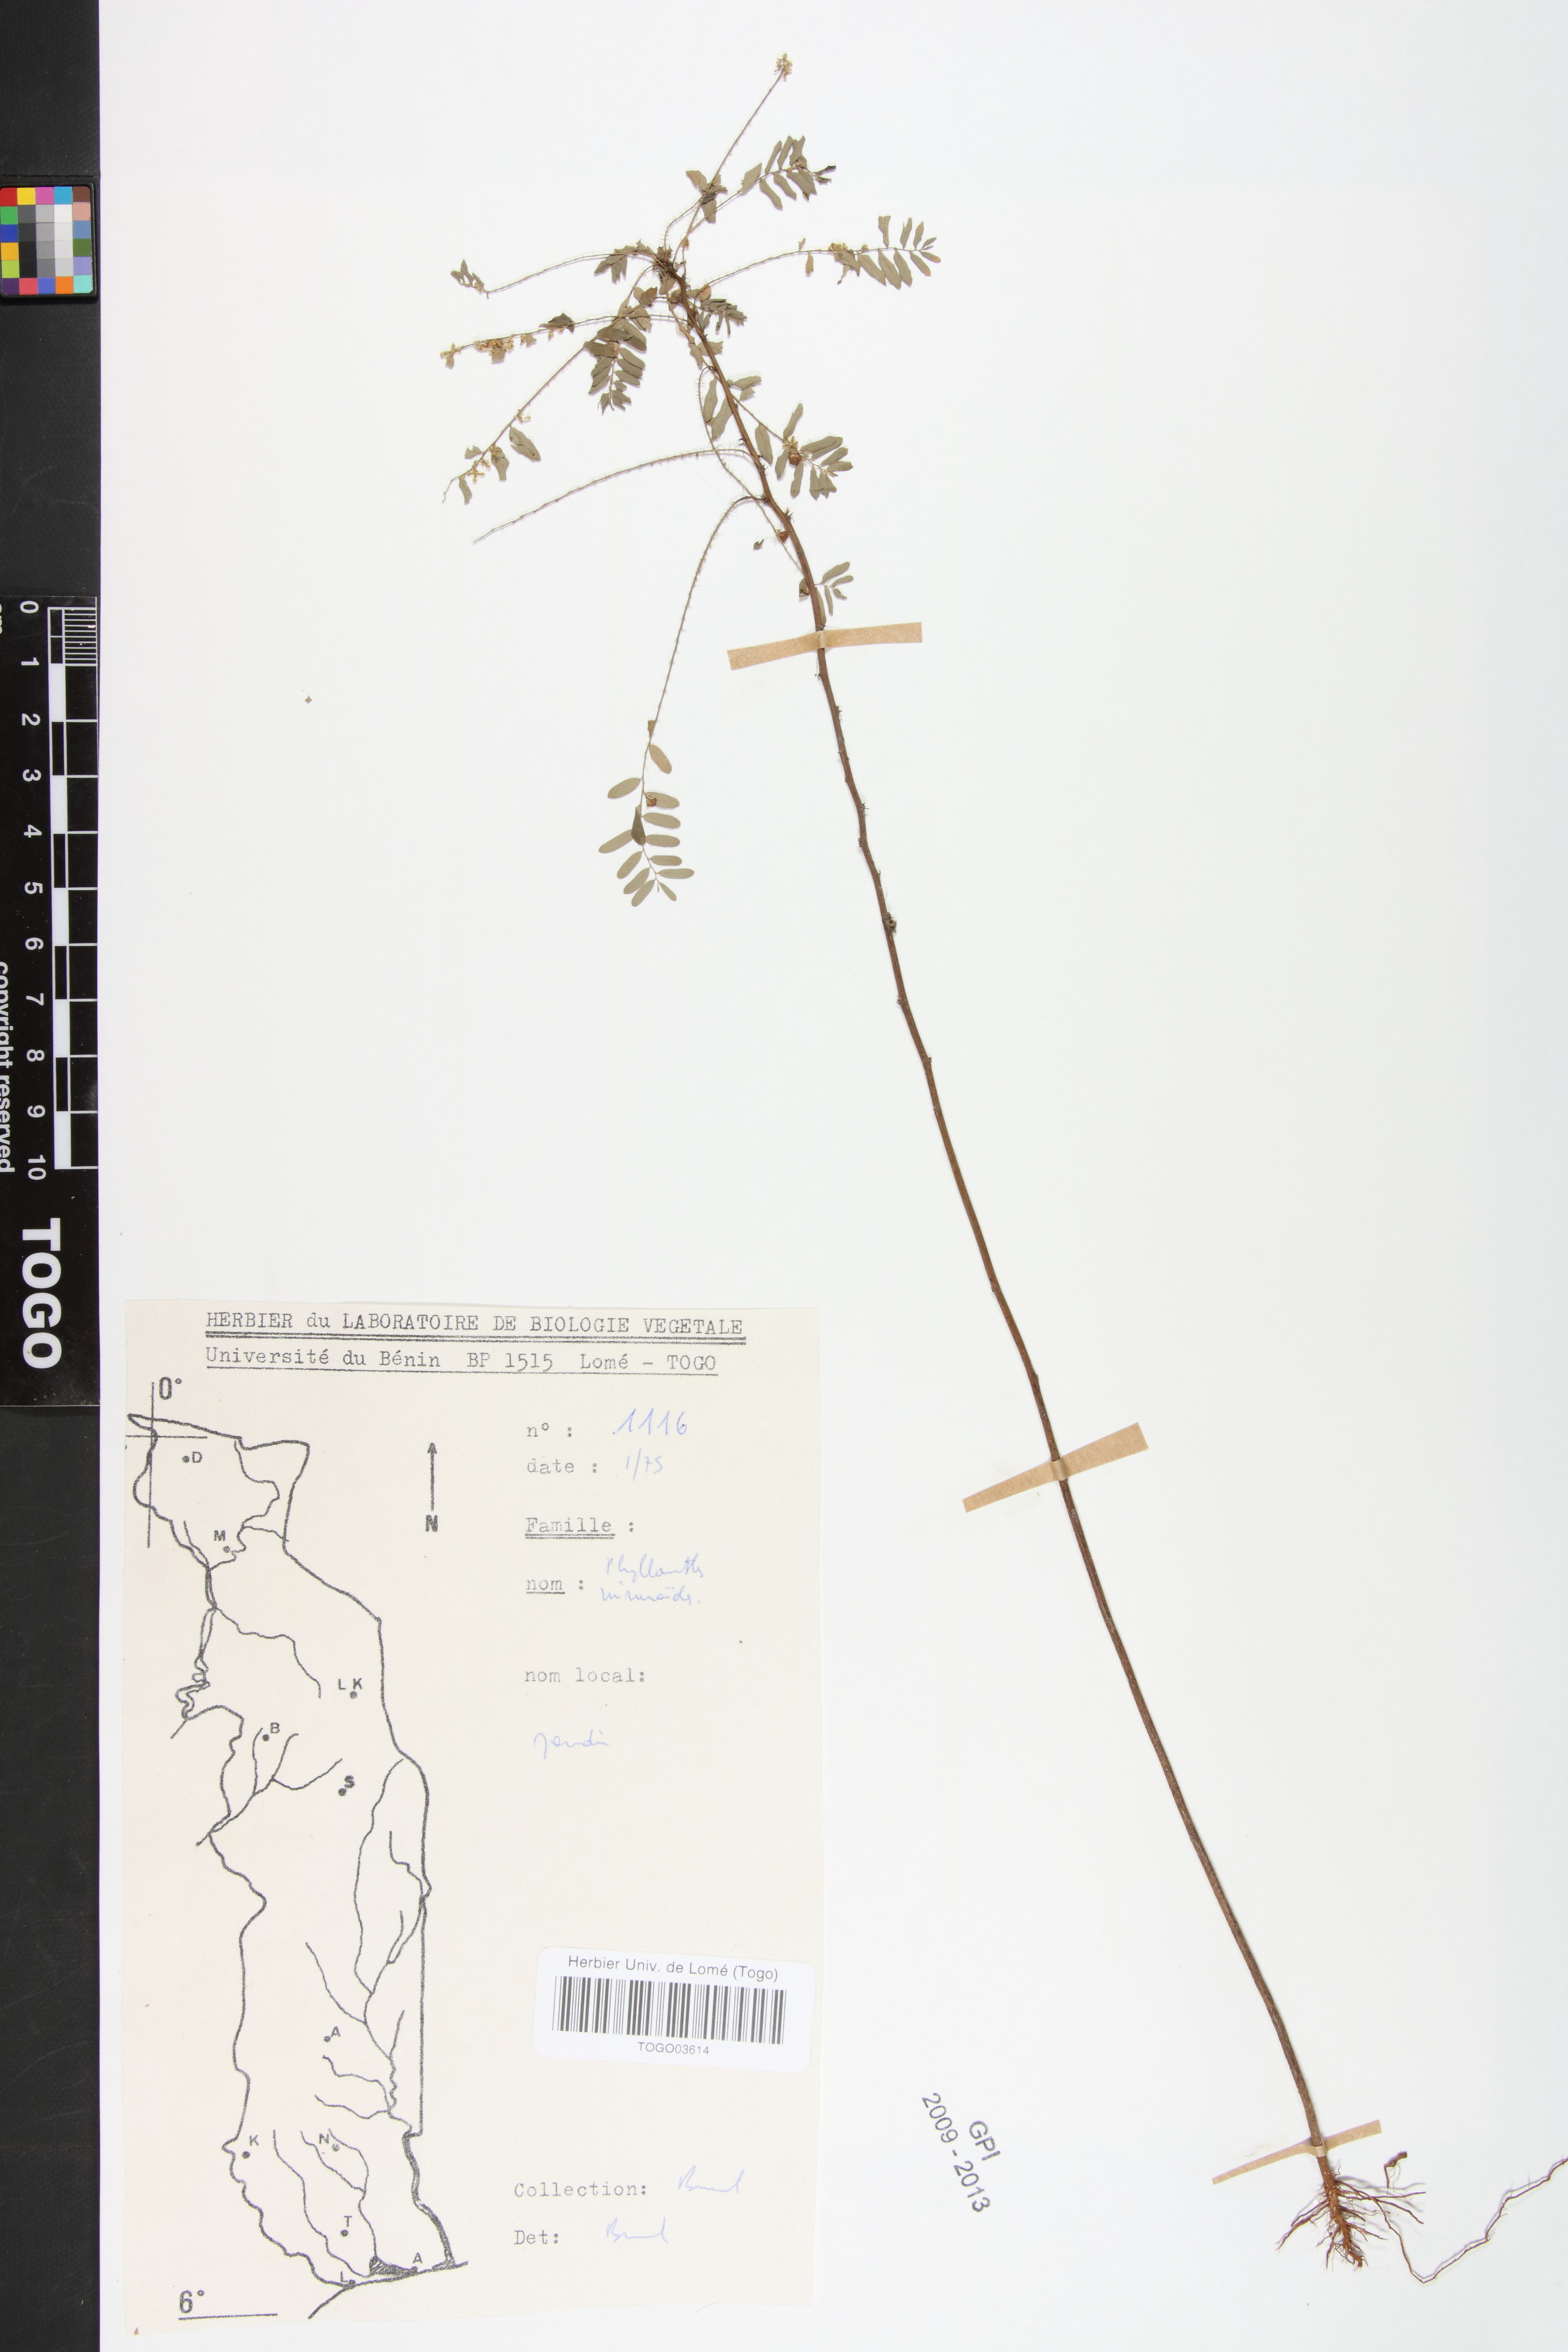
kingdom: Plantae
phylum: Tracheophyta
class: Magnoliopsida
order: Malpighiales
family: Phyllanthaceae
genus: Phyllanthus
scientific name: Phyllanthus niruroides
